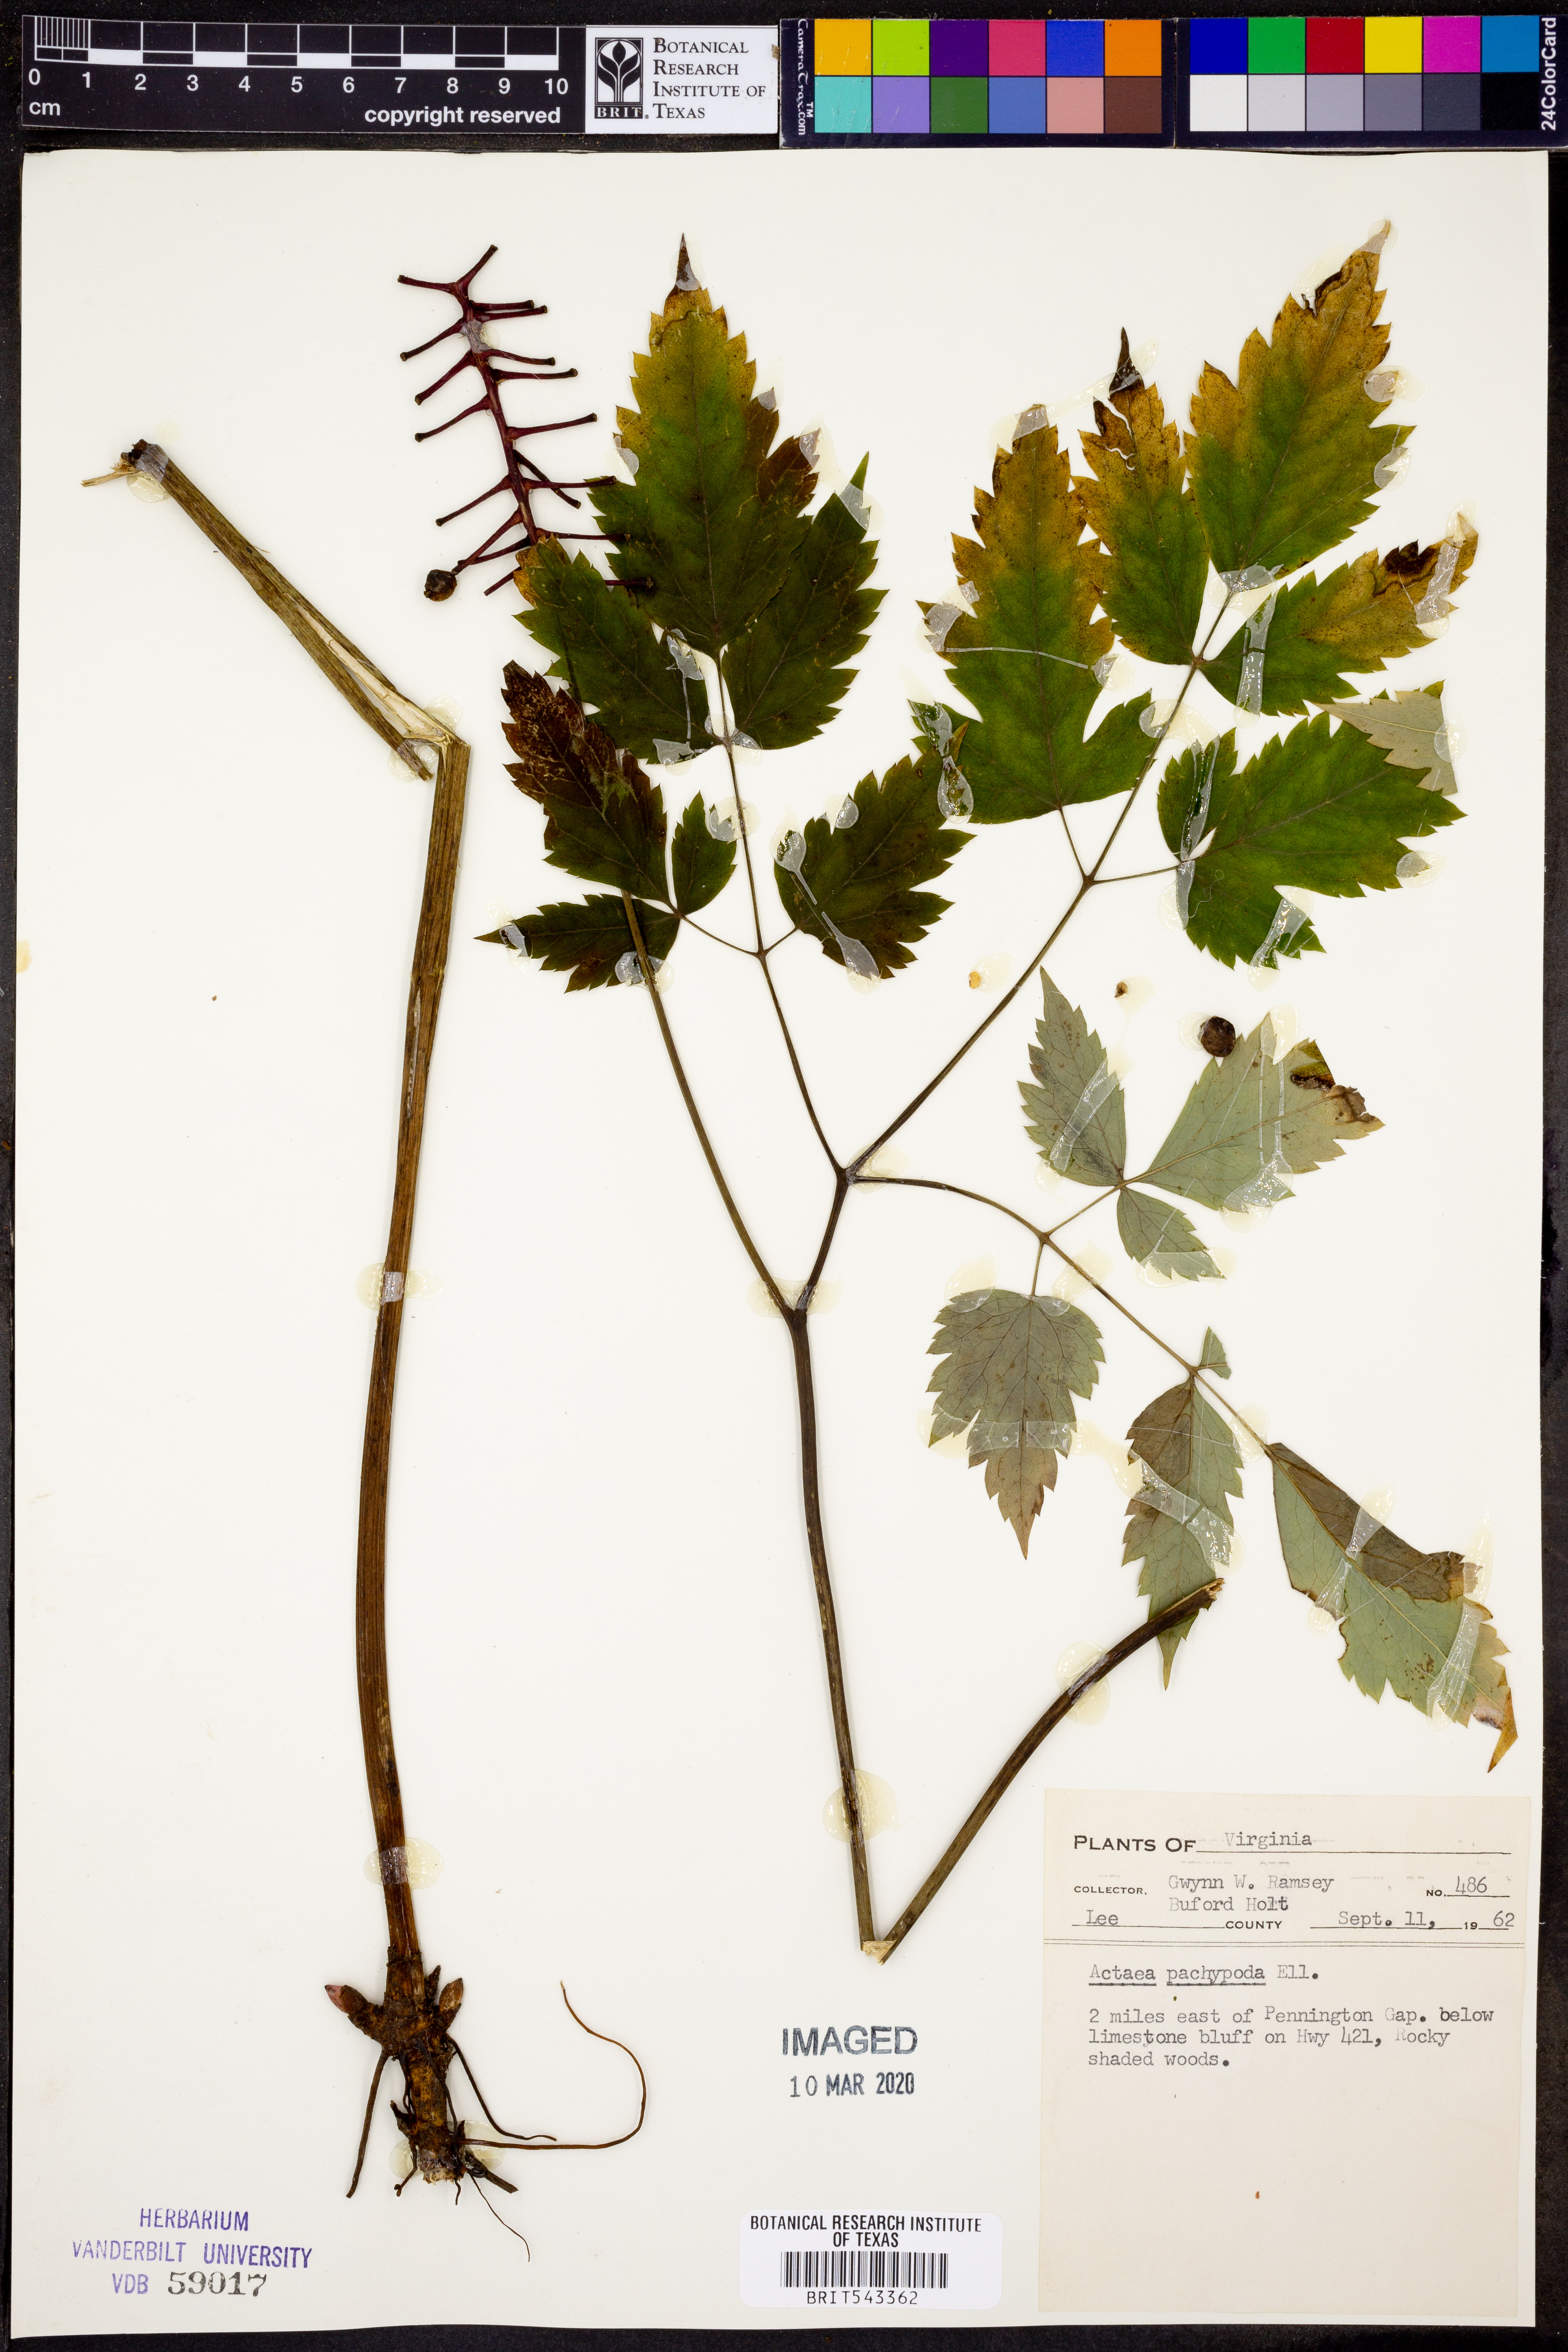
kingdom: Plantae
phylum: Tracheophyta
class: Magnoliopsida
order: Ranunculales
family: Ranunculaceae
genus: Actaea
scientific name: Actaea pachypoda
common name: Doll's-eyes
